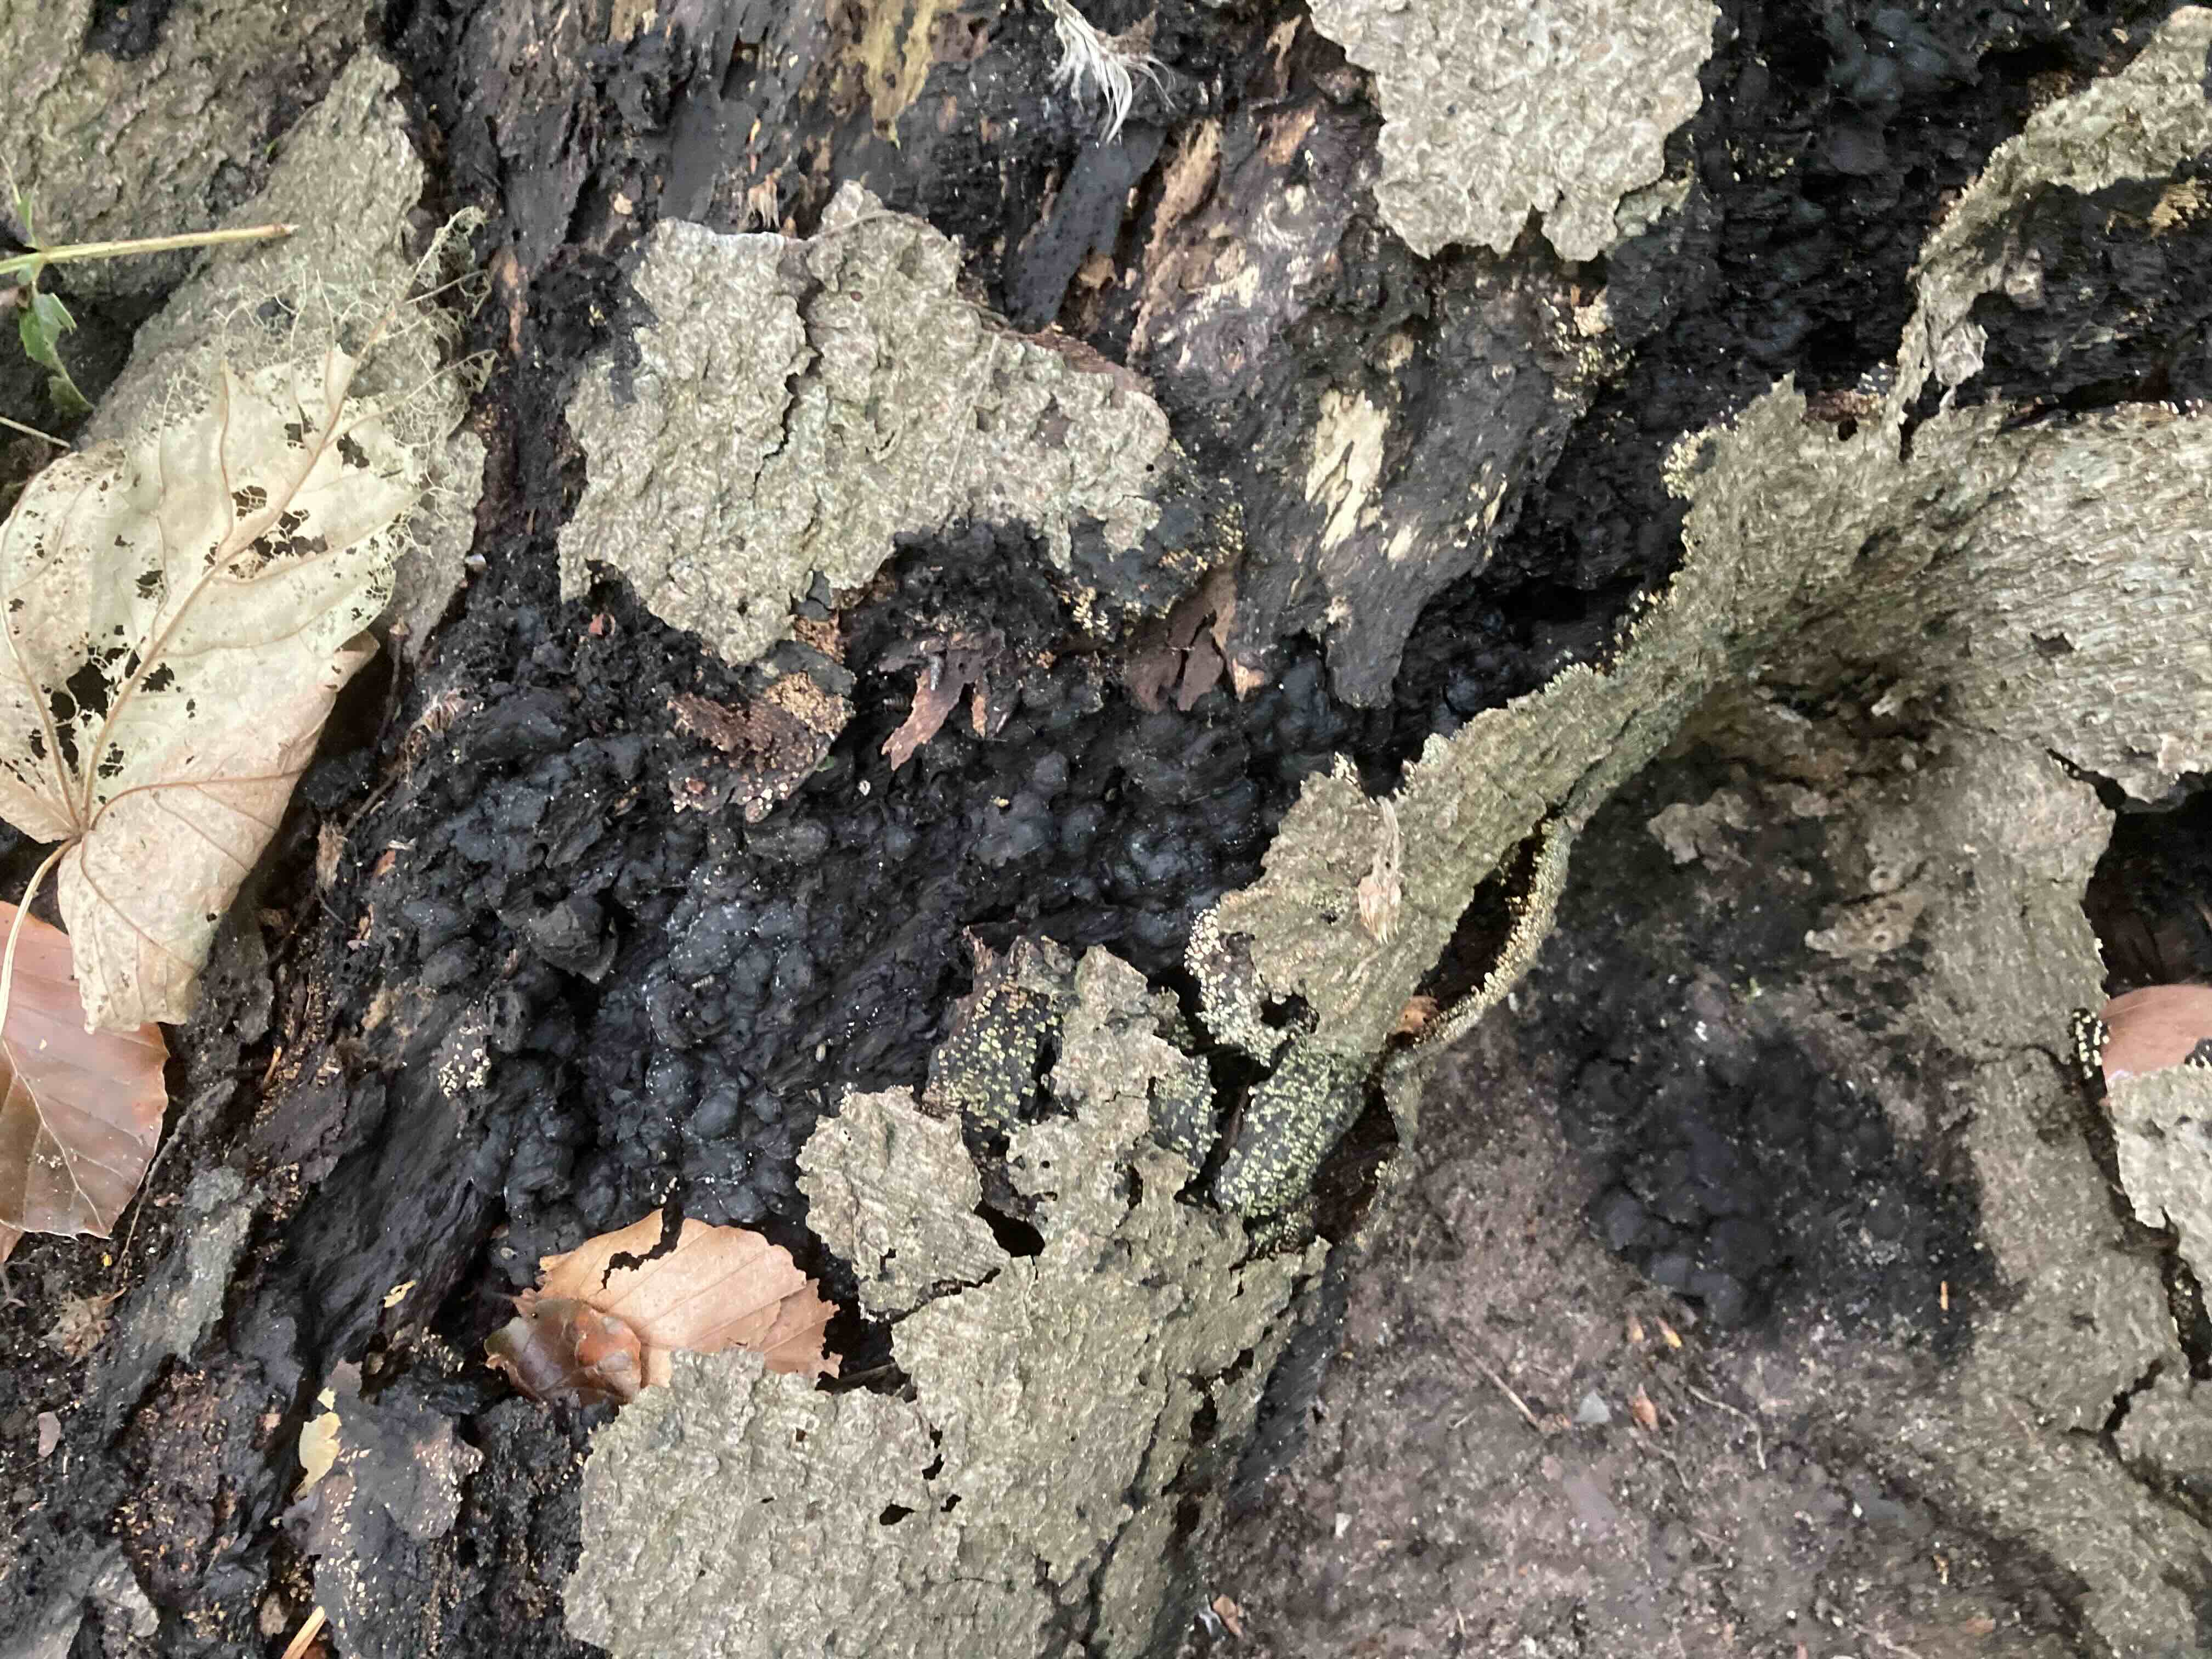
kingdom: Fungi
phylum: Ascomycota
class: Sordariomycetes
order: Xylariales
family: Xylariaceae
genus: Kretzschmaria
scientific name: Kretzschmaria deusta
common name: stor kulsvamp
